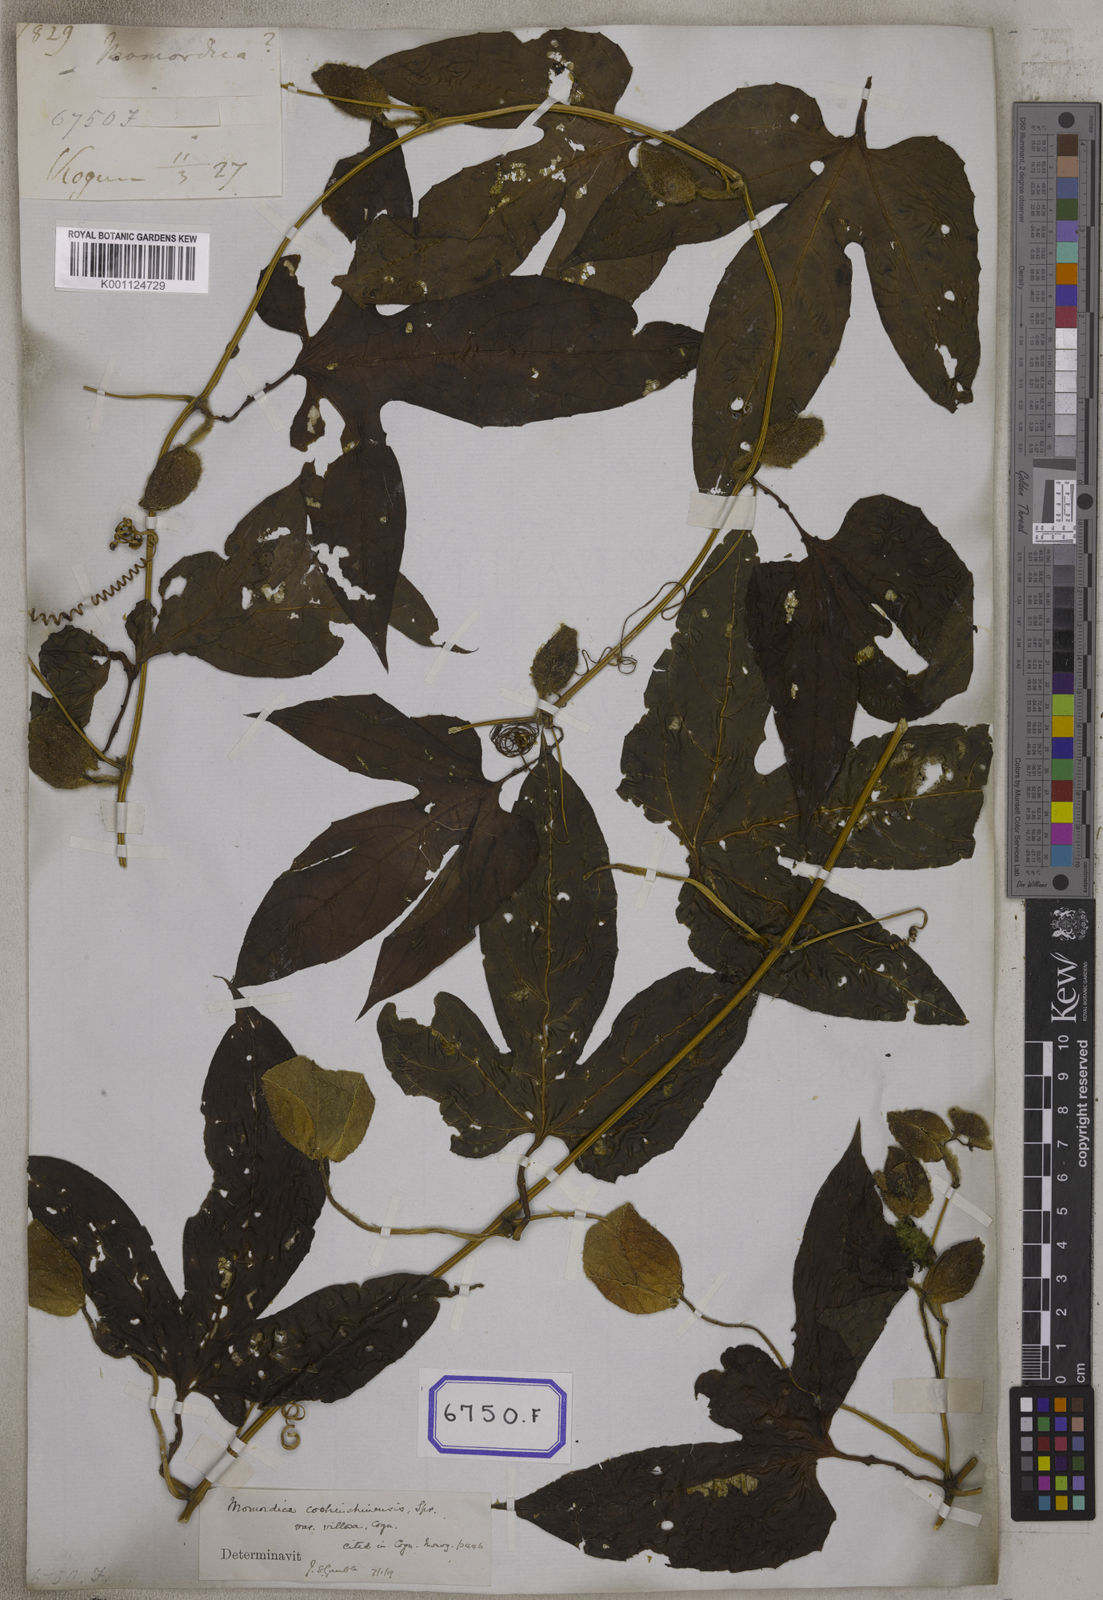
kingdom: Plantae
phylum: Tracheophyta
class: Magnoliopsida
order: Cucurbitales
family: Cucurbitaceae
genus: Momordica
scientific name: Momordica
